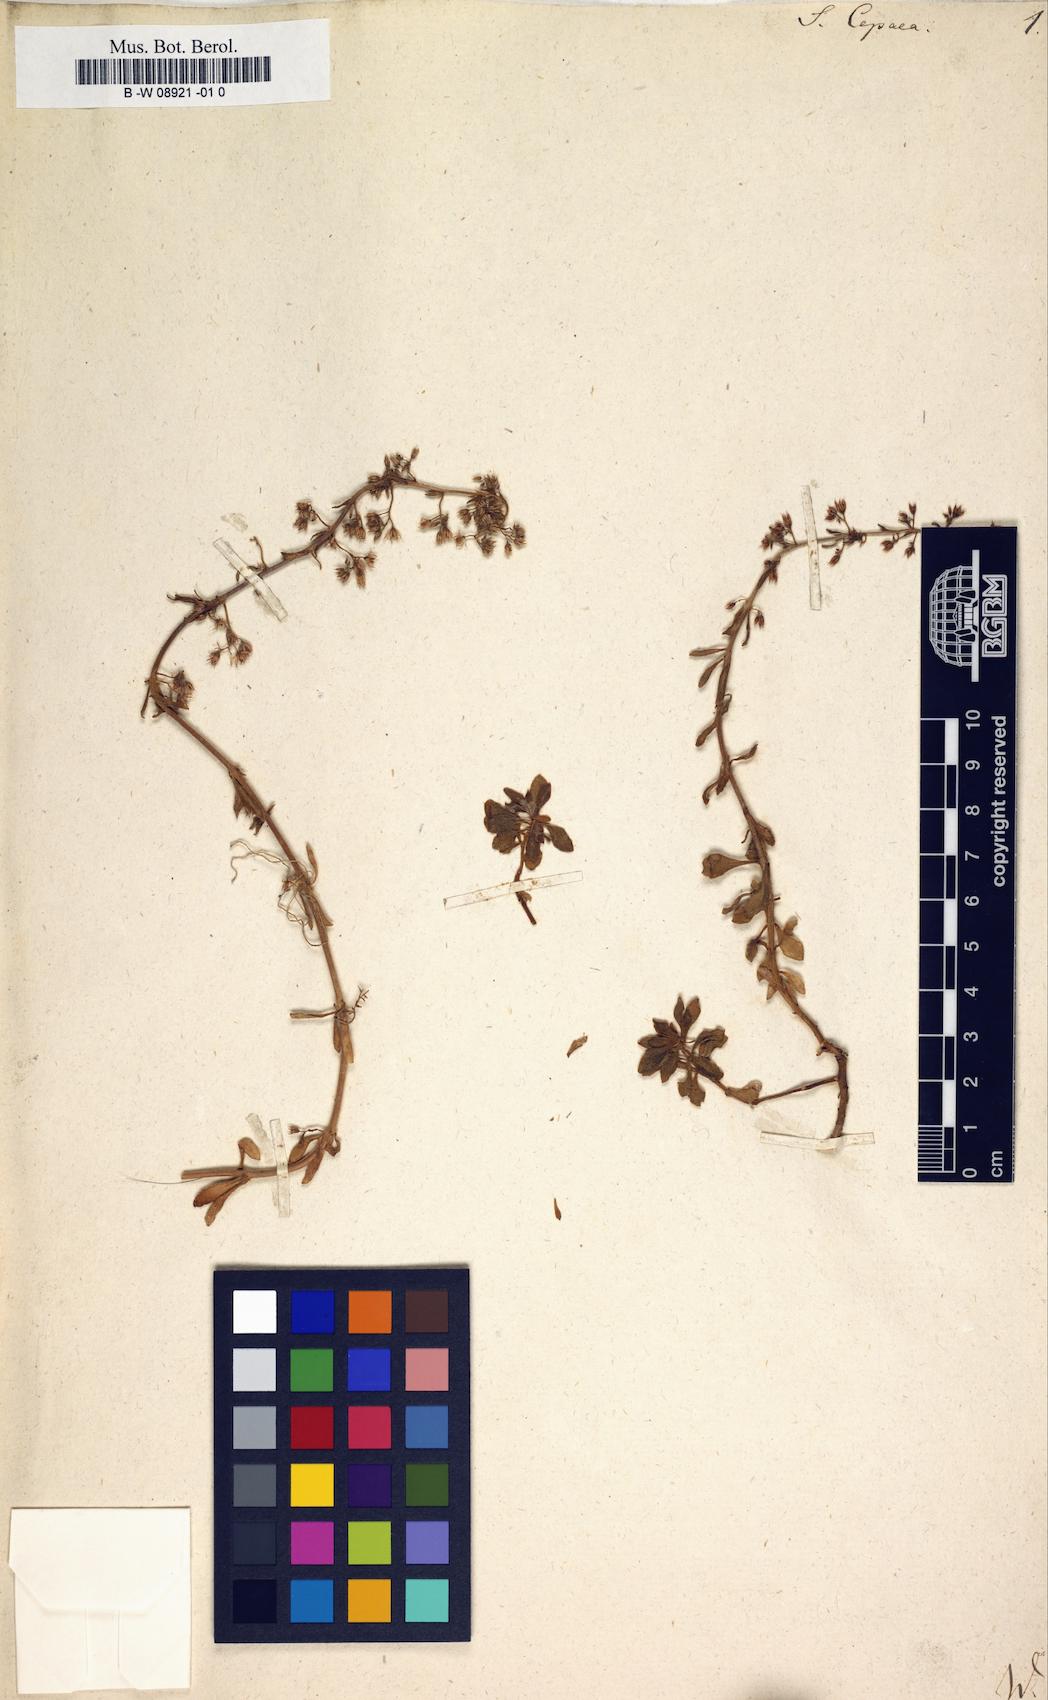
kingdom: Plantae
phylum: Tracheophyta
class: Magnoliopsida
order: Saxifragales
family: Crassulaceae
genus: Sedum
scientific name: Sedum cepaea
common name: Pink stonecrop
